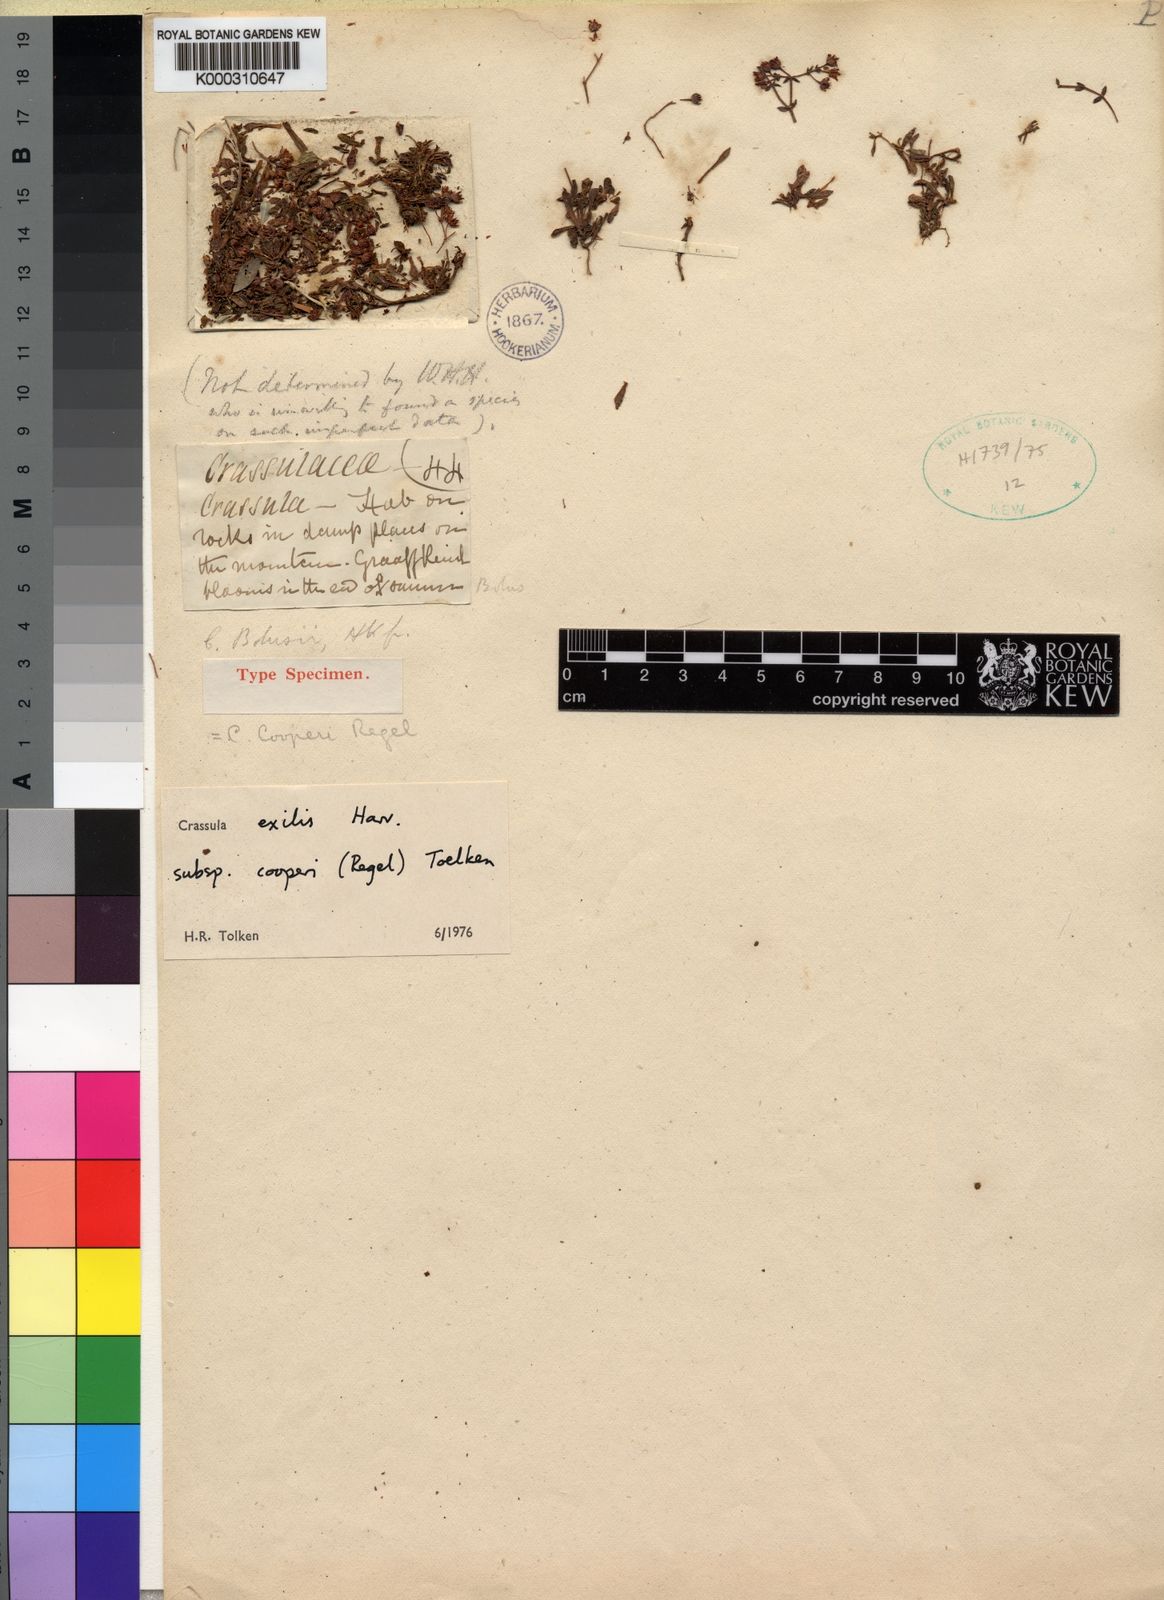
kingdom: Plantae
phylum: Tracheophyta
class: Magnoliopsida
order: Saxifragales
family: Crassulaceae
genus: Crassula
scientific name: Crassula cooperi
